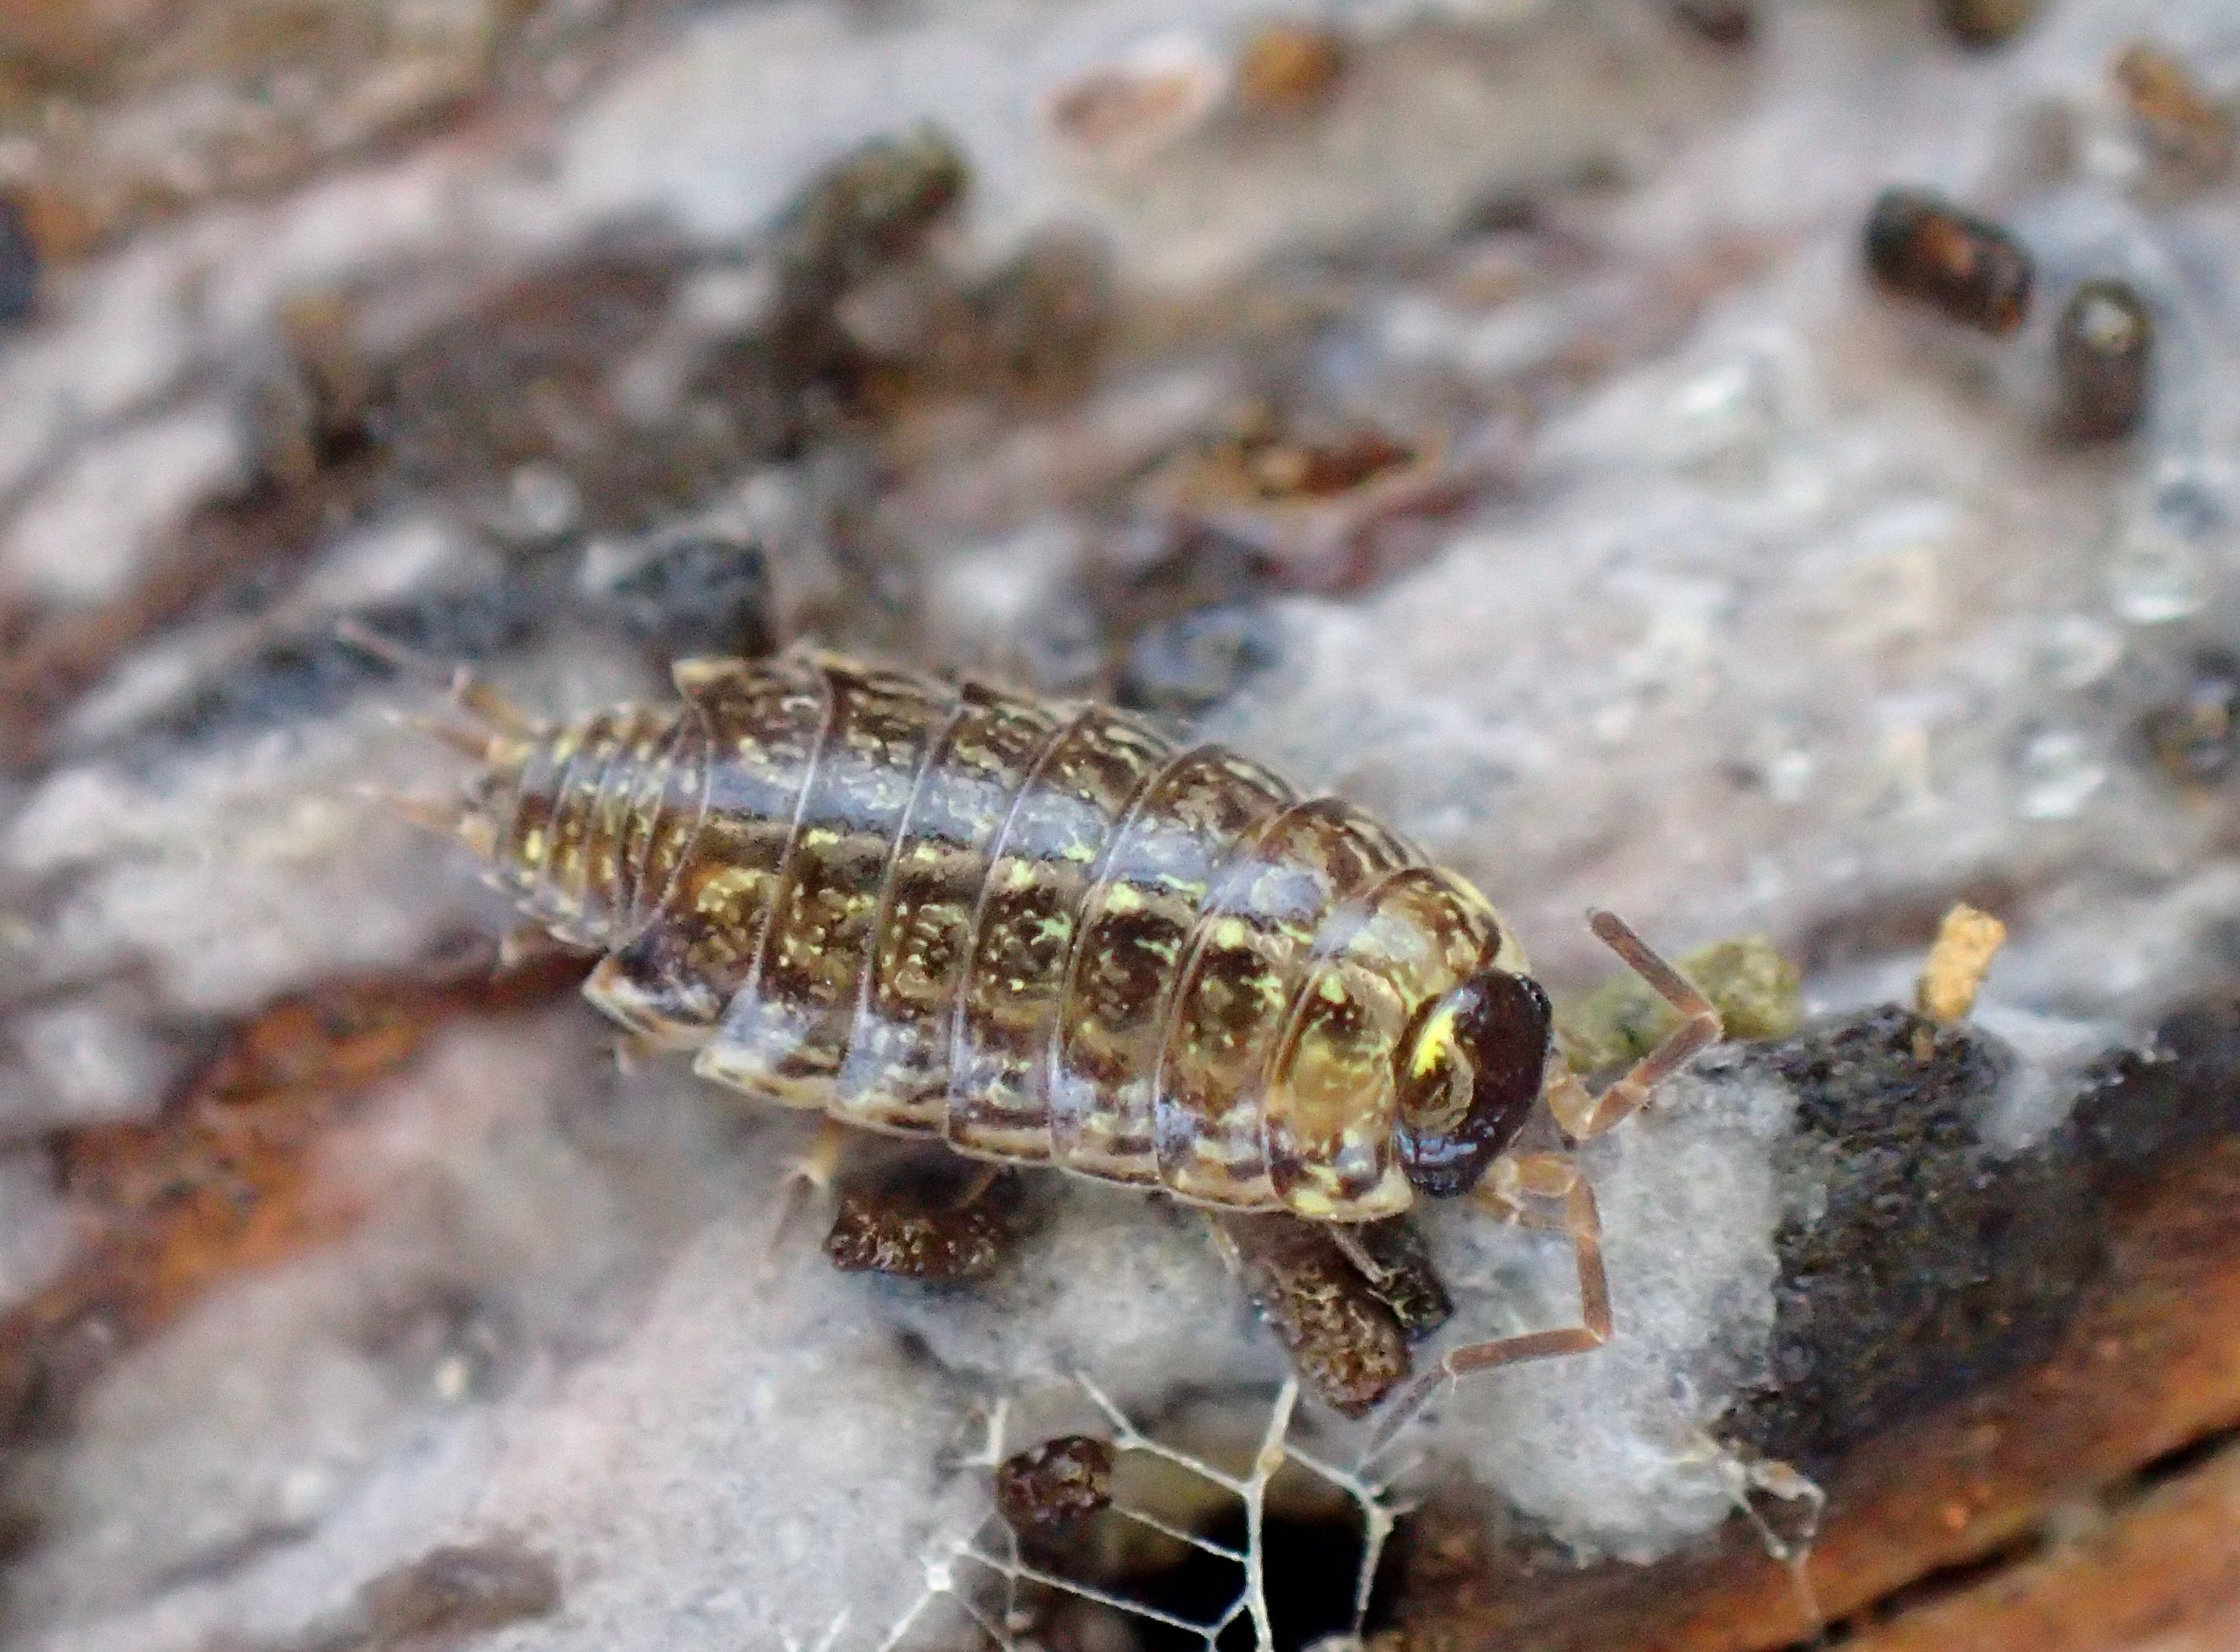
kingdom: Animalia
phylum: Arthropoda
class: Malacostraca
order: Isopoda
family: Philosciidae
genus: Philoscia
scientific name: Philoscia muscorum
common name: Langbenet bænkebider
